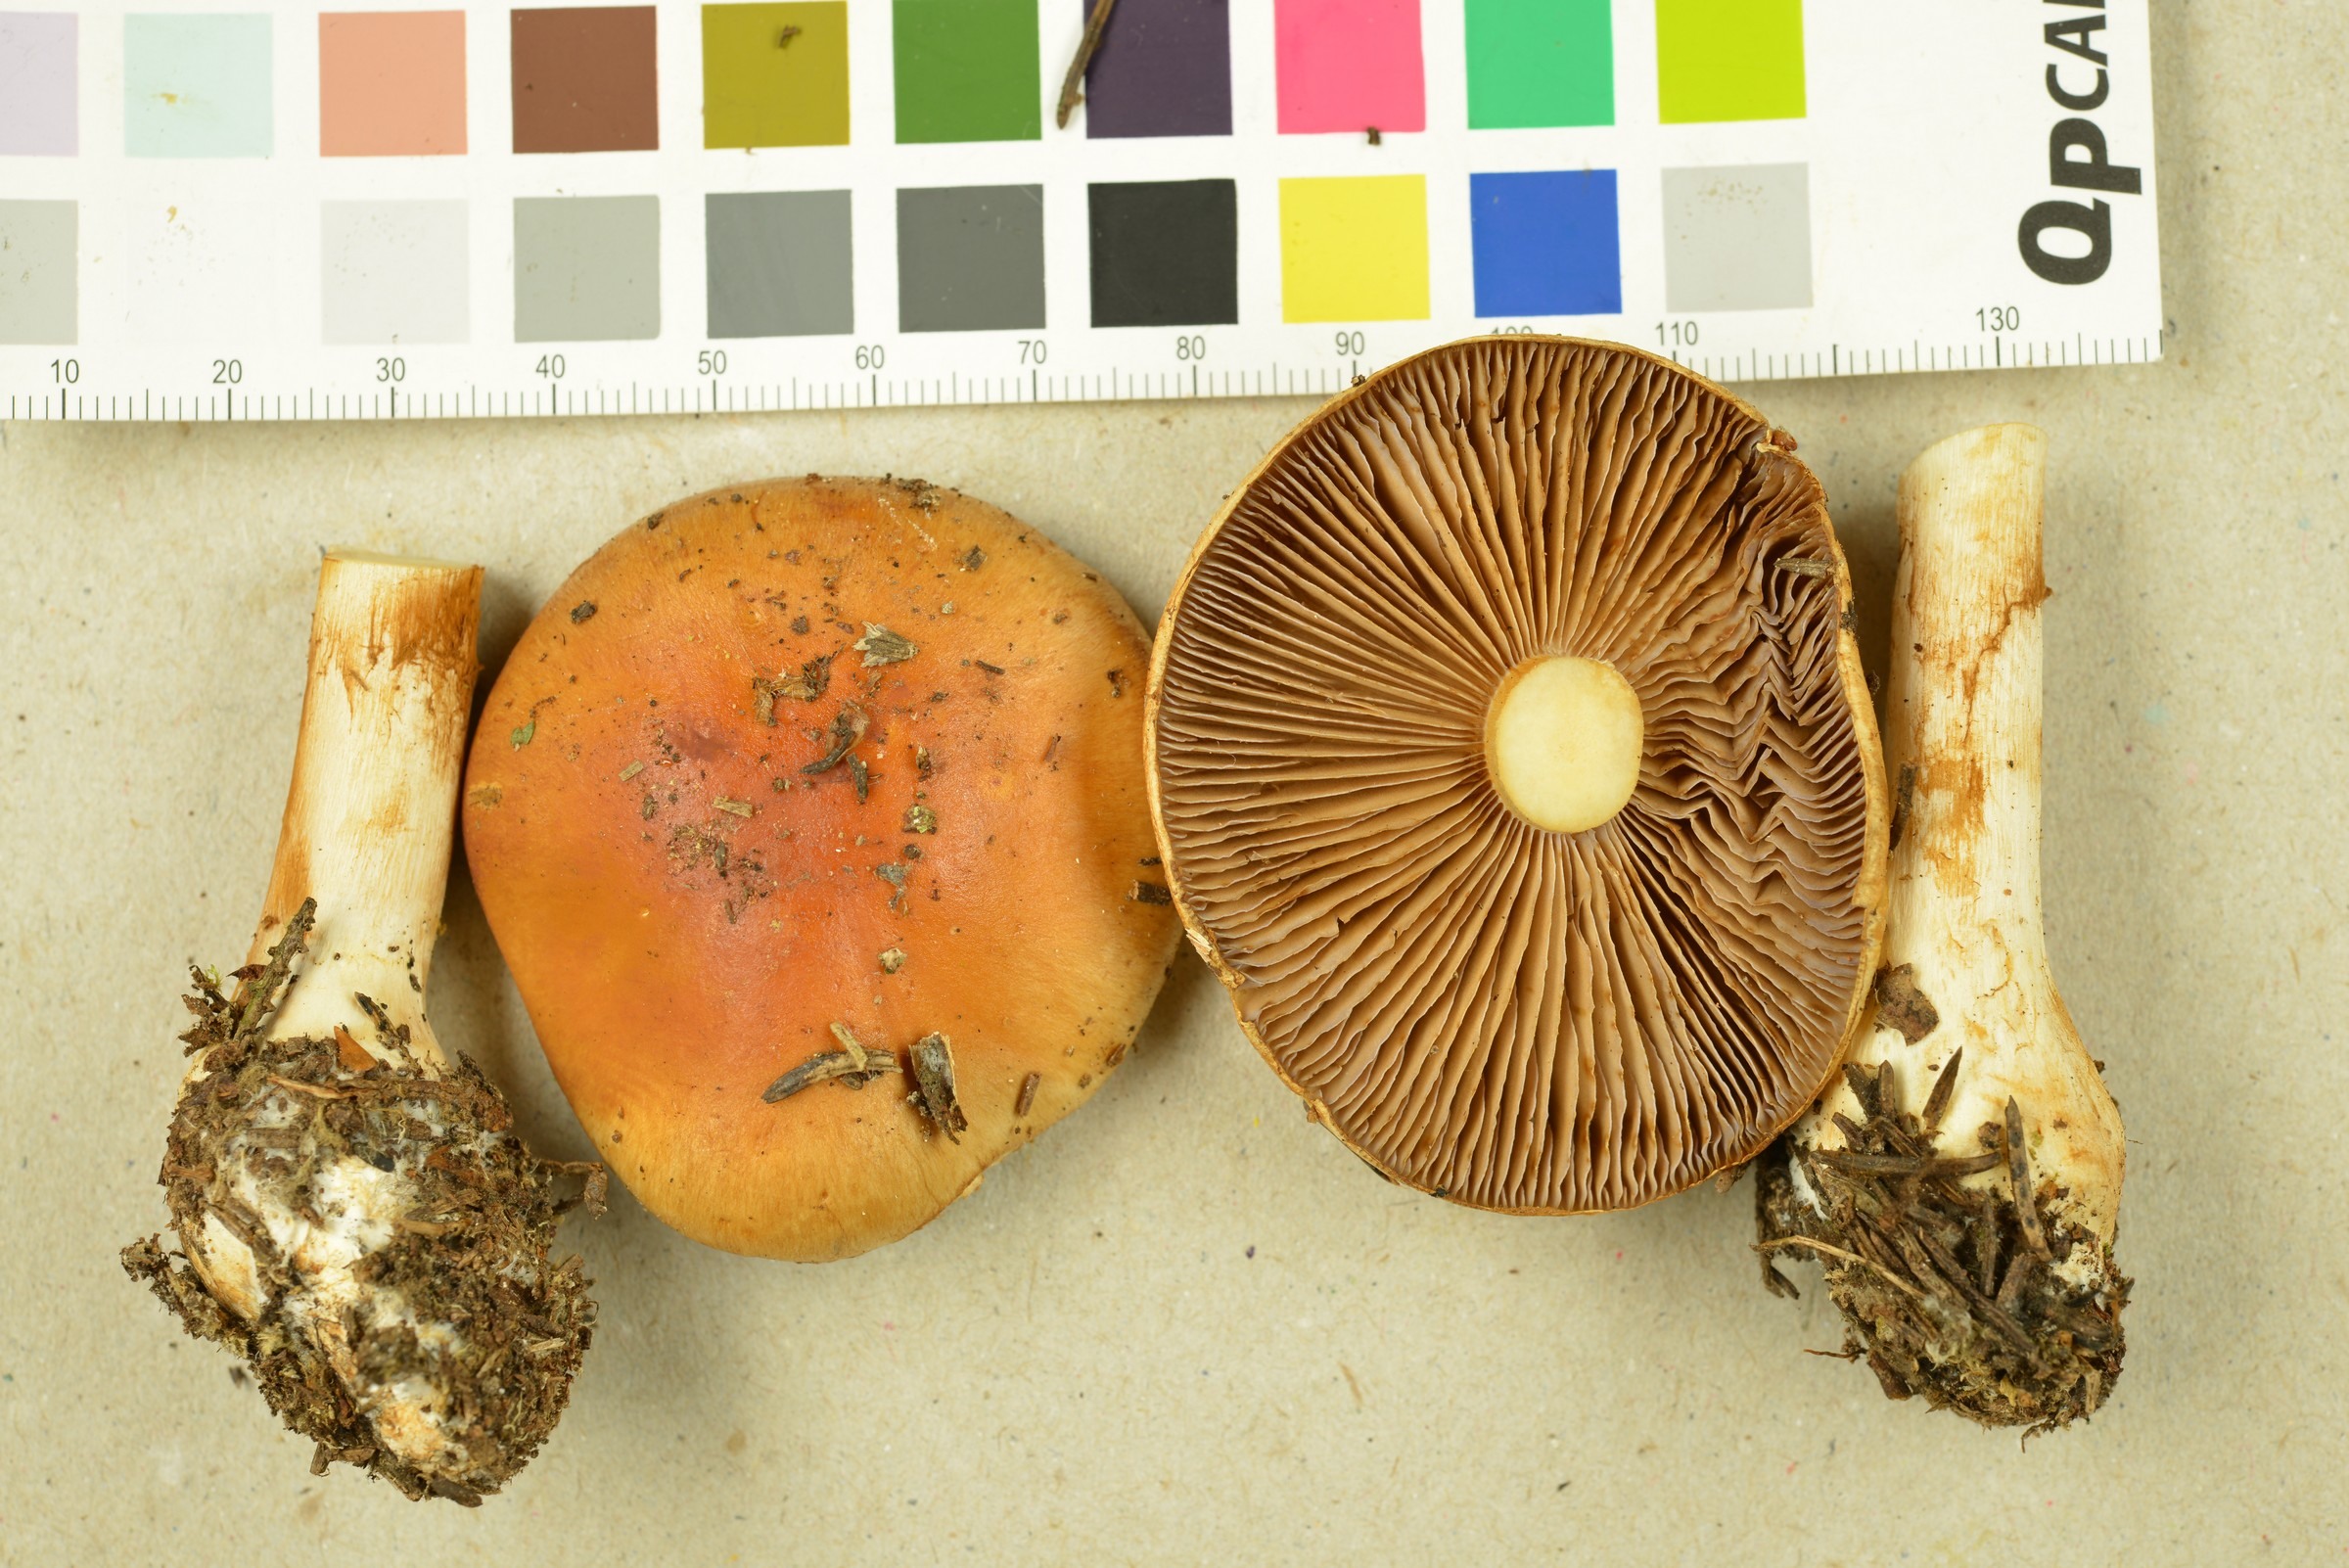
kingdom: Fungi
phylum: Basidiomycota
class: Agaricomycetes
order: Agaricales
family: Cortinariaceae
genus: Cortinarius
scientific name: Cortinarius varius
